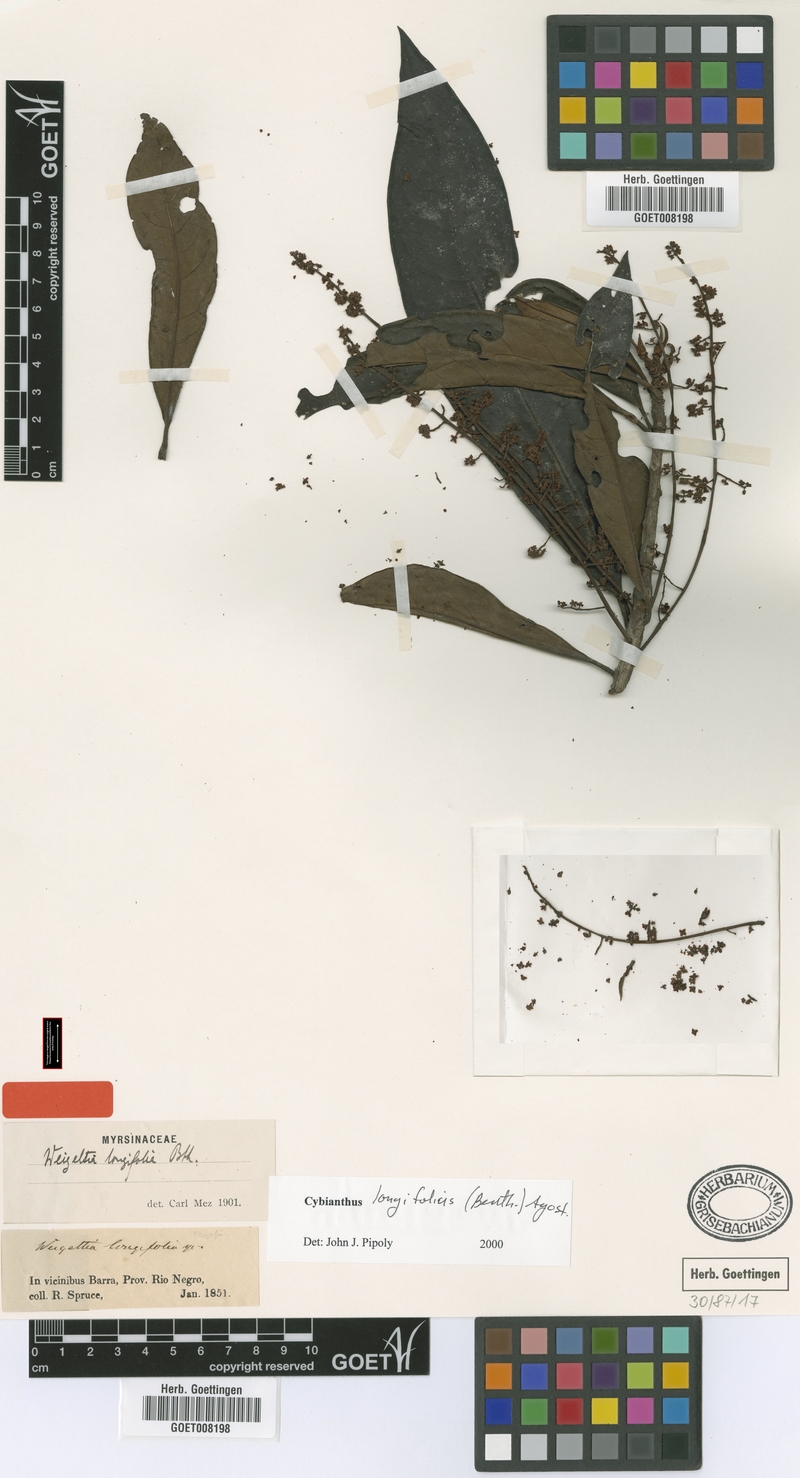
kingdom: Plantae
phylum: Tracheophyta
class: Magnoliopsida
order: Ericales
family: Primulaceae
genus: Cybianthus
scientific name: Cybianthus longifolius
